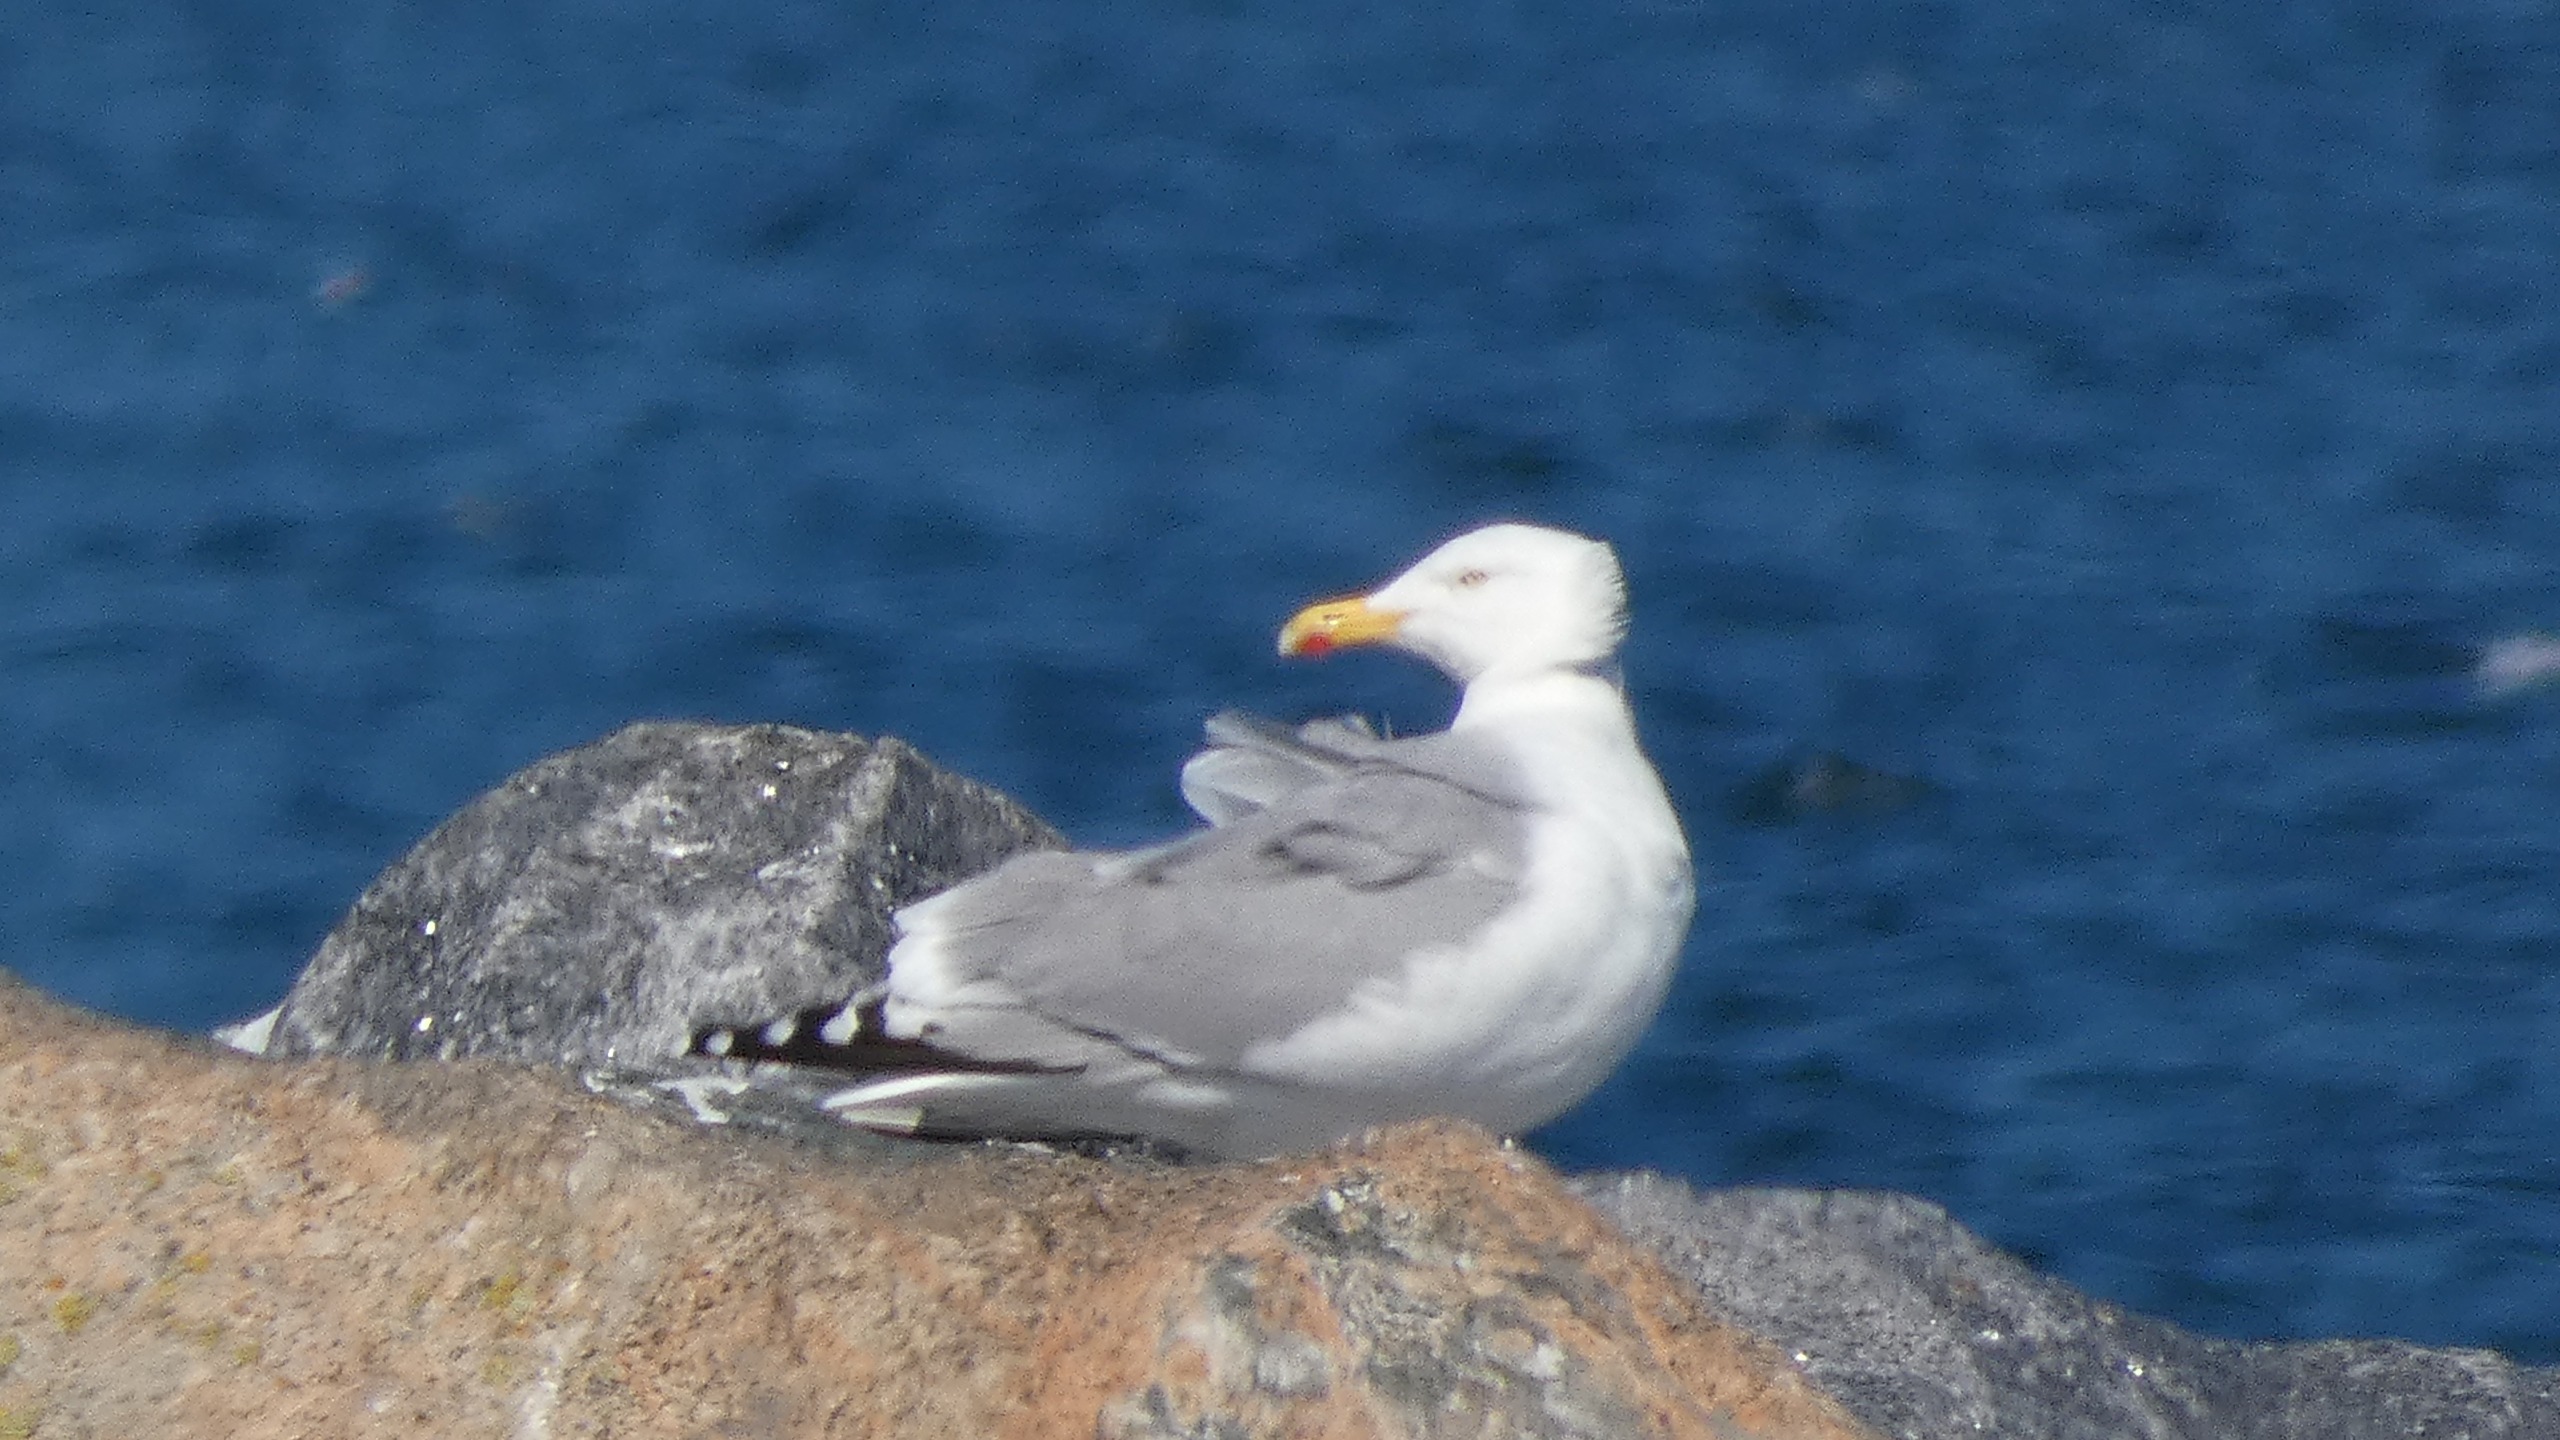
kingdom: Animalia
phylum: Chordata
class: Aves
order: Charadriiformes
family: Laridae
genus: Larus
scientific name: Larus argentatus
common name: Sølvmåge
